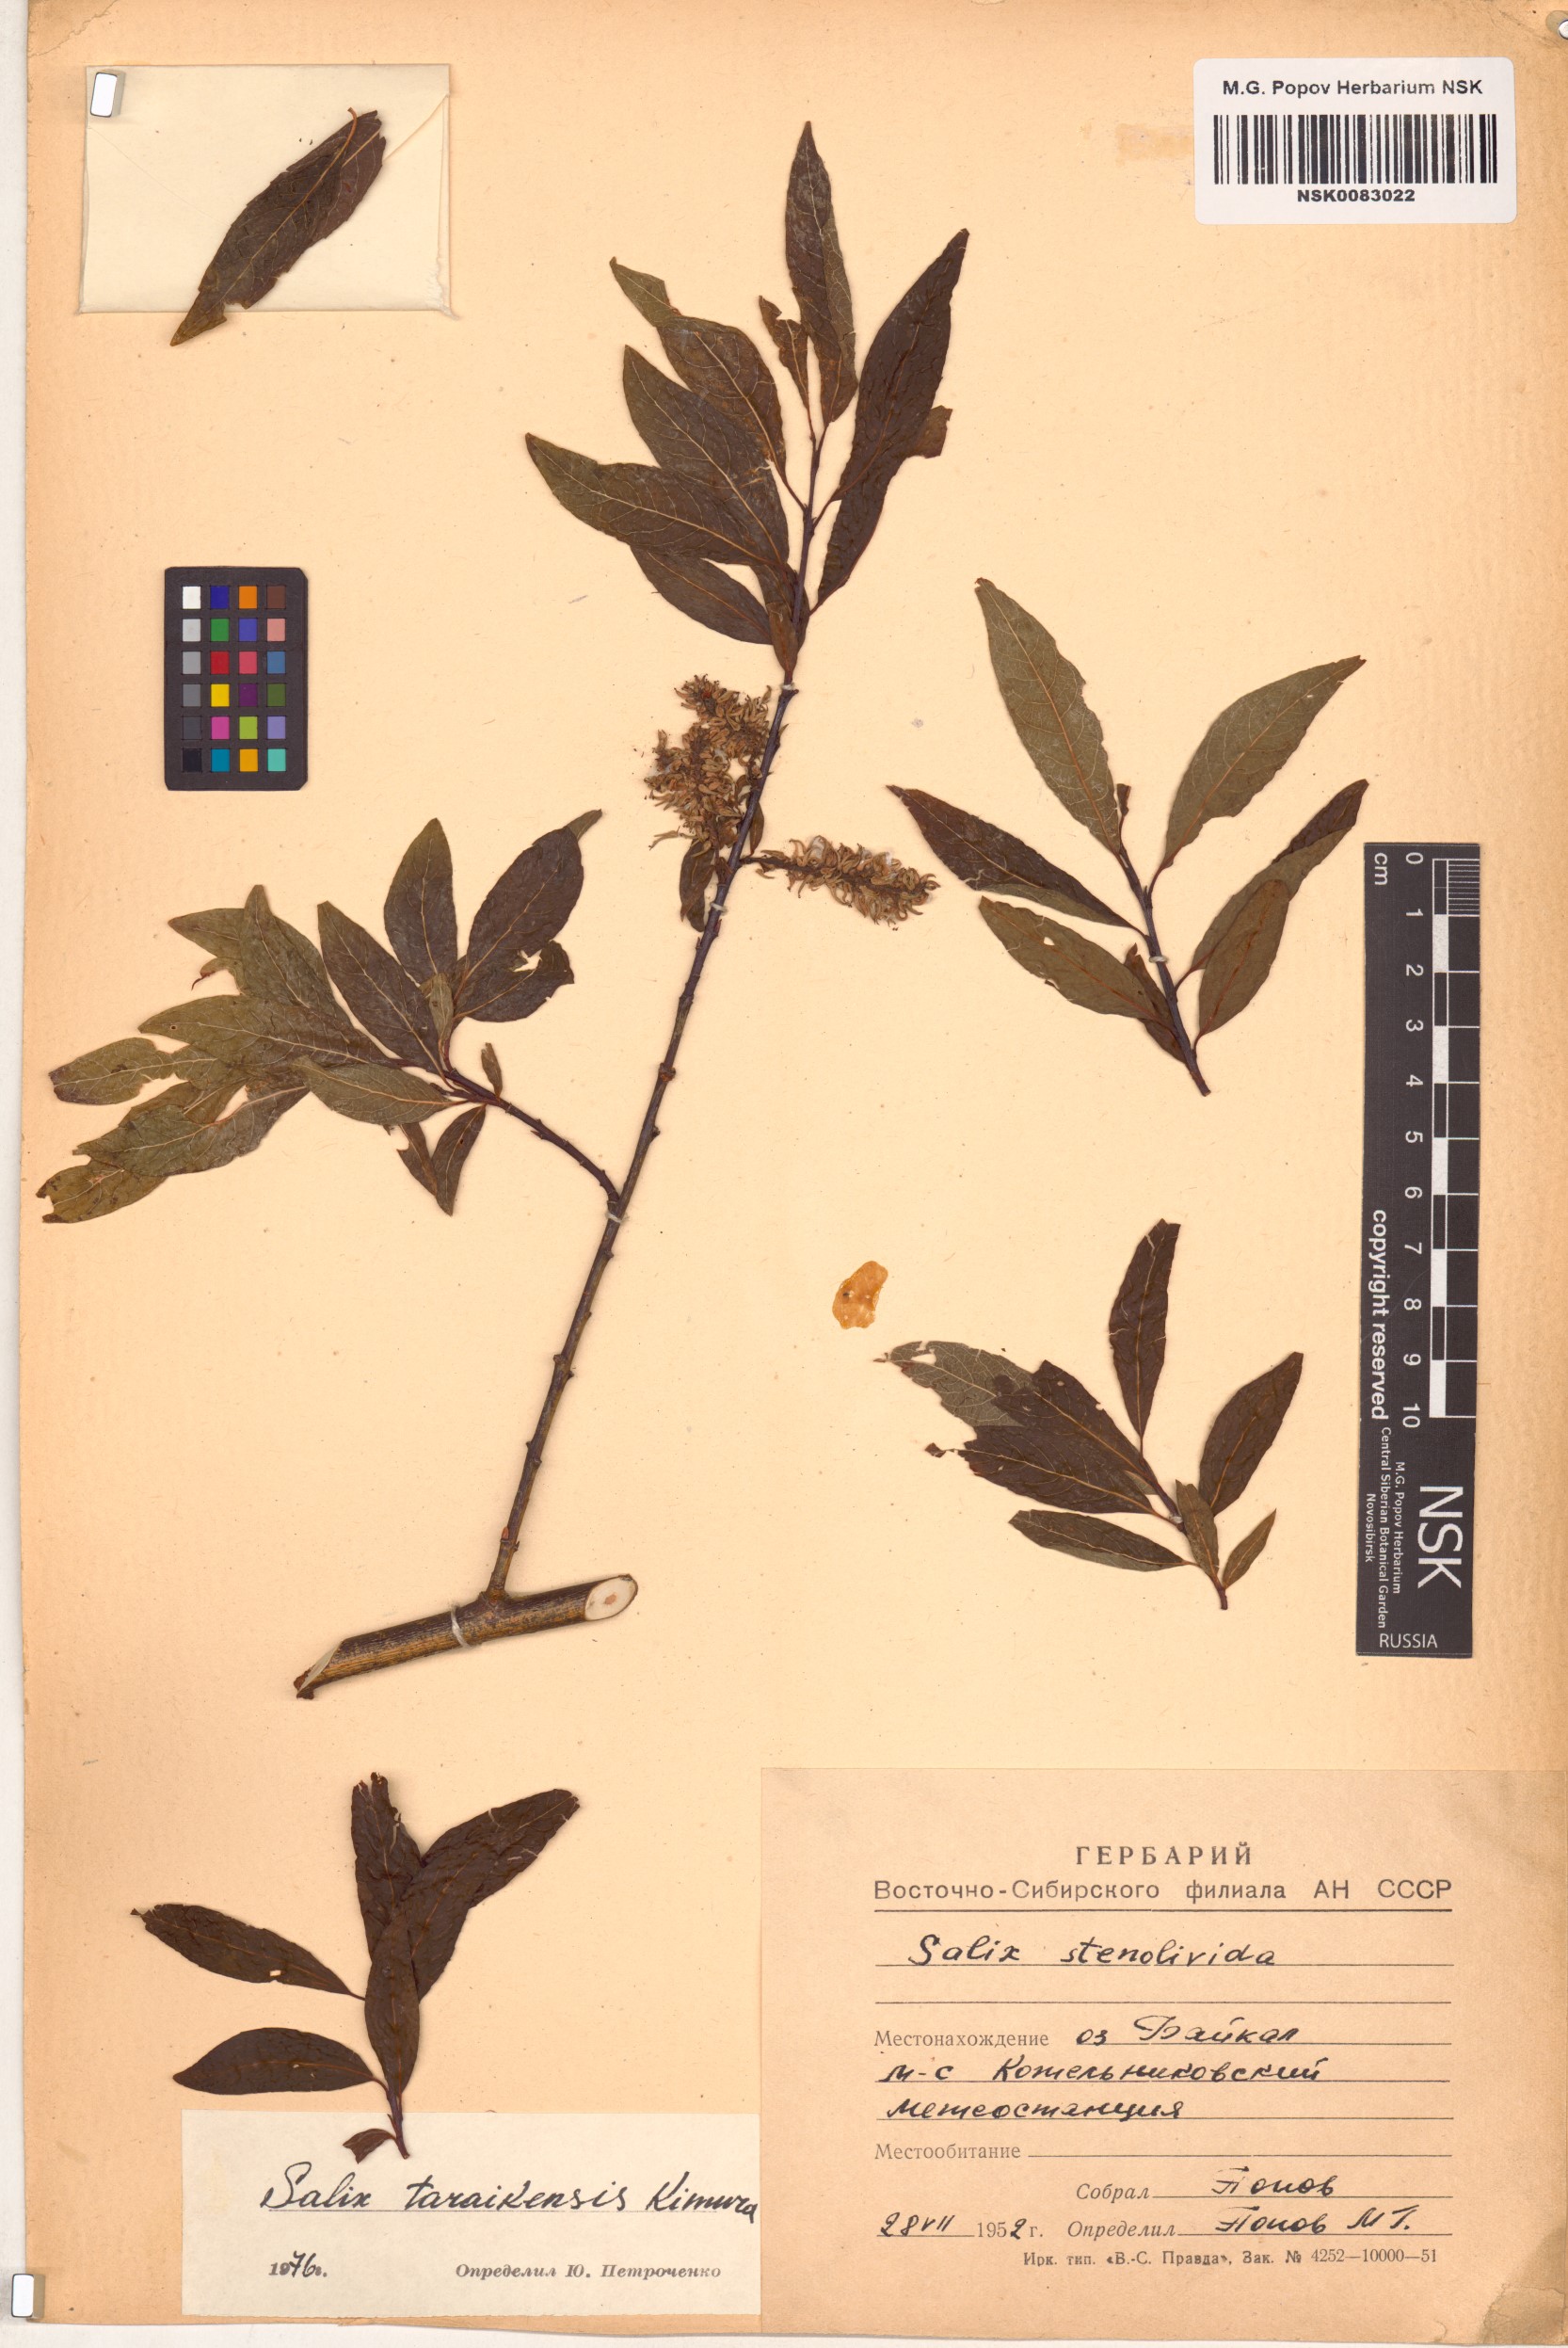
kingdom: Plantae
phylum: Tracheophyta
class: Magnoliopsida
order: Malpighiales
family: Salicaceae
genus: Salix
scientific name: Salix taraikensis
